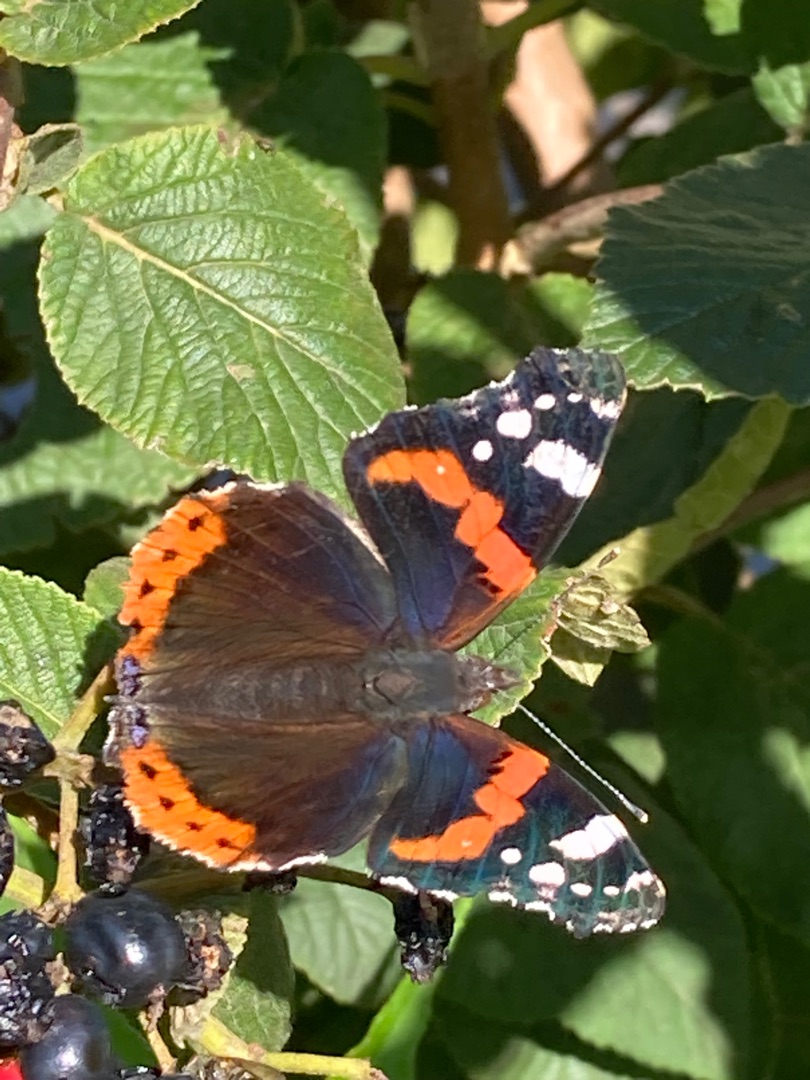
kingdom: Animalia
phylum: Arthropoda
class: Insecta
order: Lepidoptera
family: Nymphalidae
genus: Vanessa
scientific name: Vanessa atalanta
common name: Admiral
